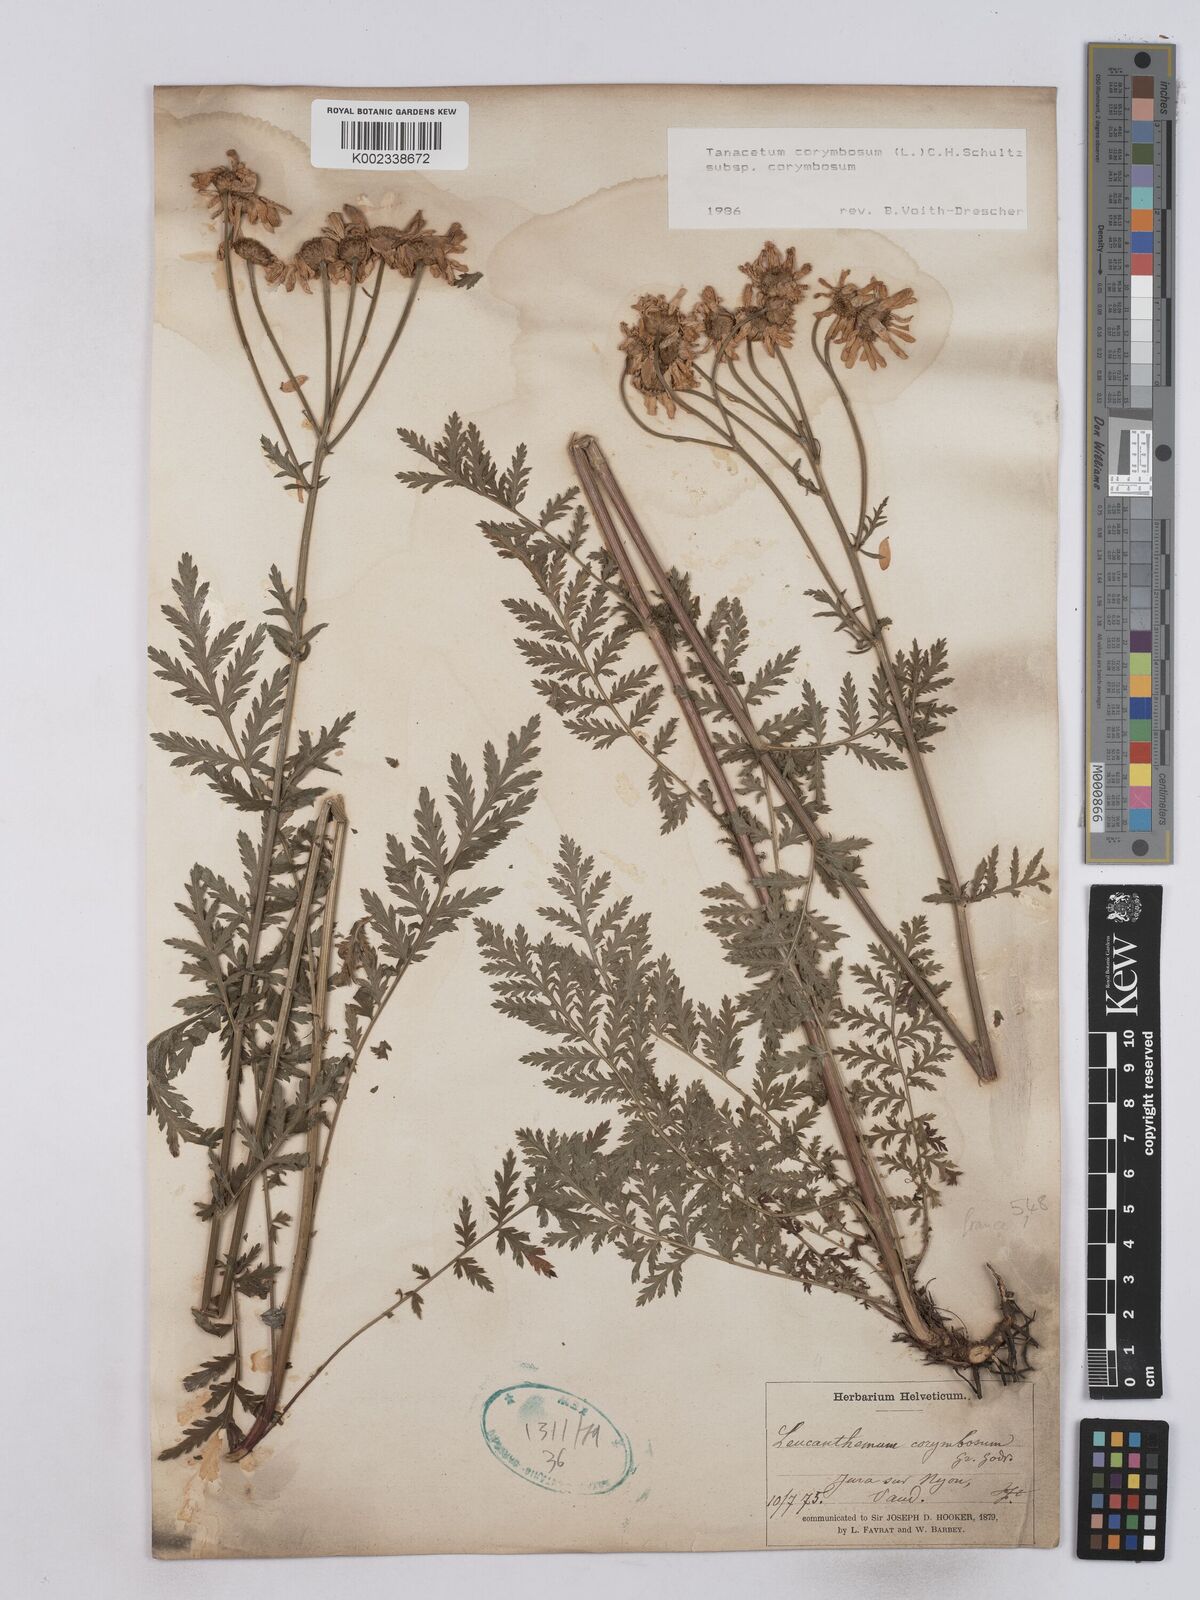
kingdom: Plantae
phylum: Tracheophyta
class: Magnoliopsida
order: Asterales
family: Asteraceae
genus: Tanacetum
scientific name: Tanacetum corymbosum
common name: Scentless feverfew
